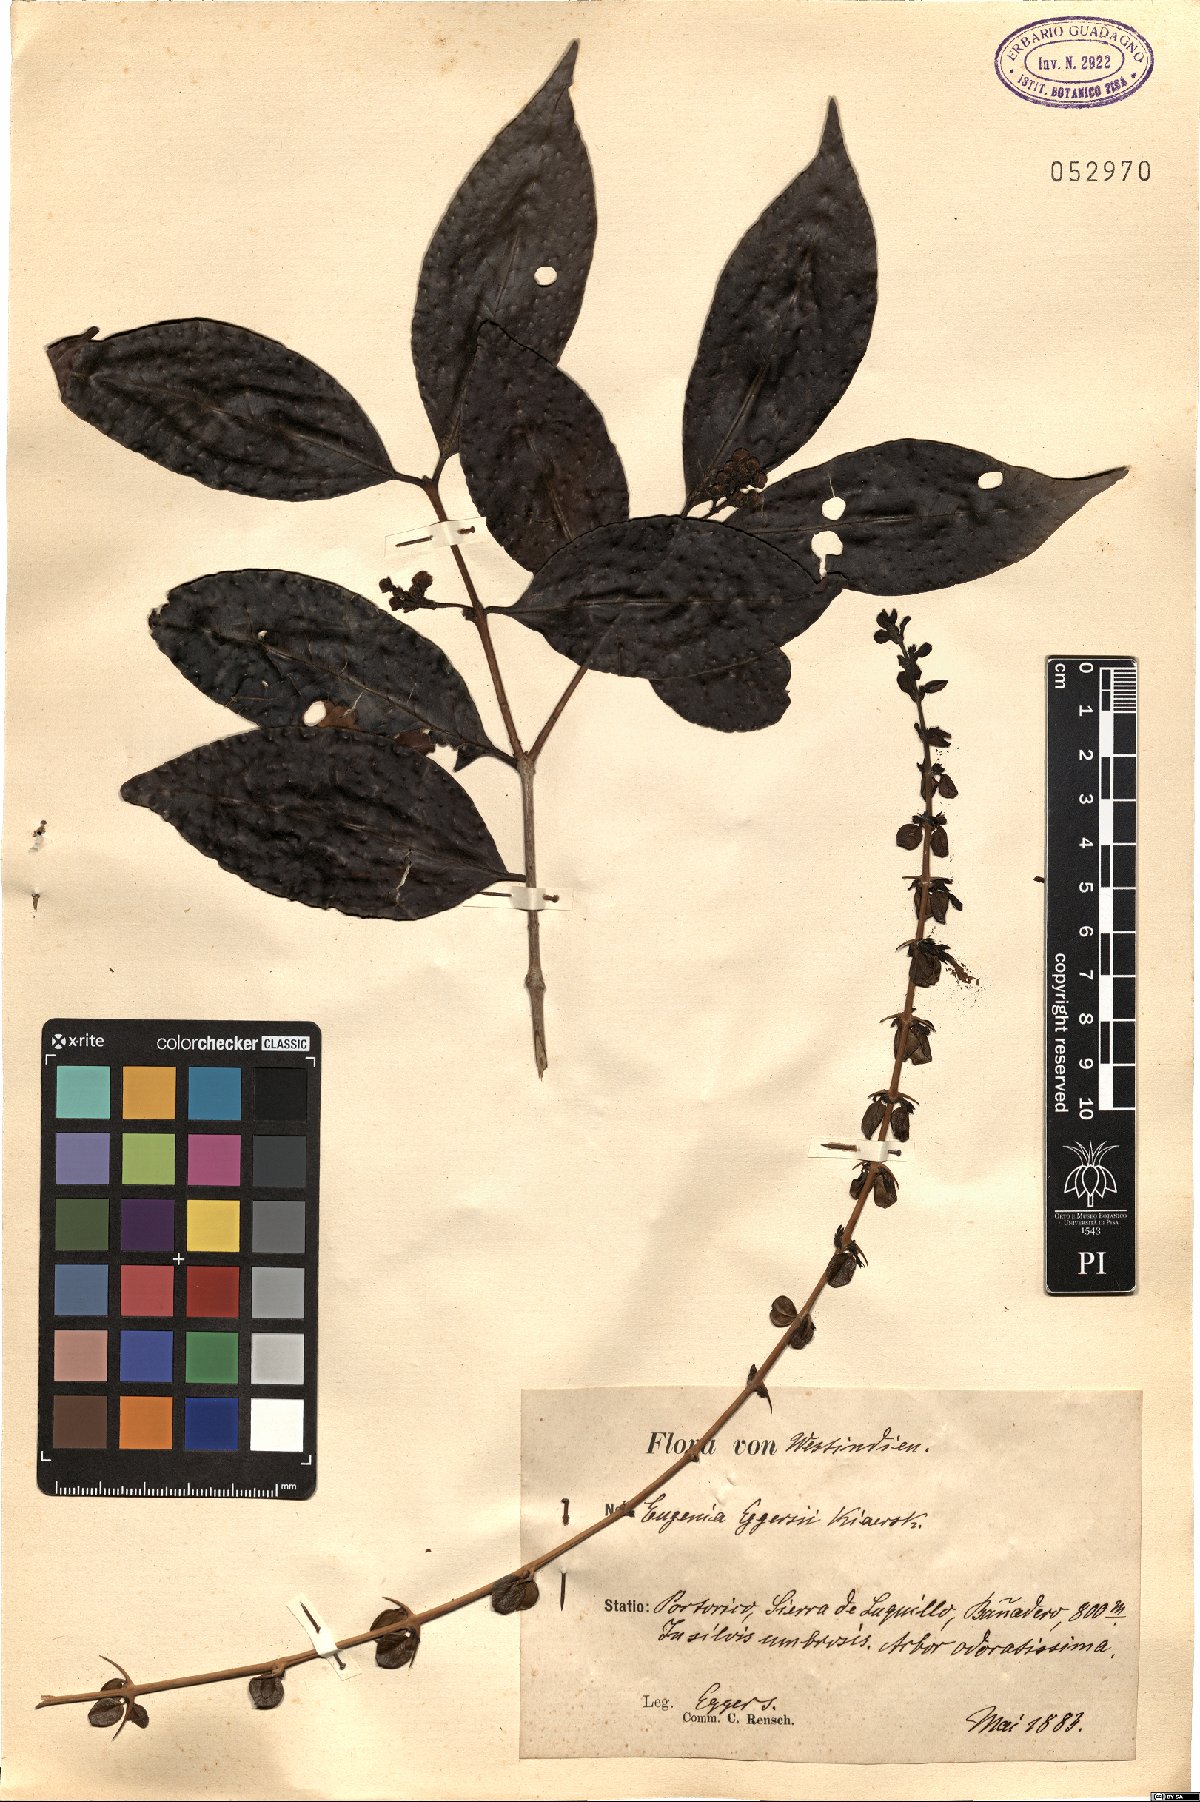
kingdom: Plantae
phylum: Tracheophyta
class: Magnoliopsida
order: Myrtales
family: Myrtaceae
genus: Eugenia
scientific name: Eugenia eggersii
